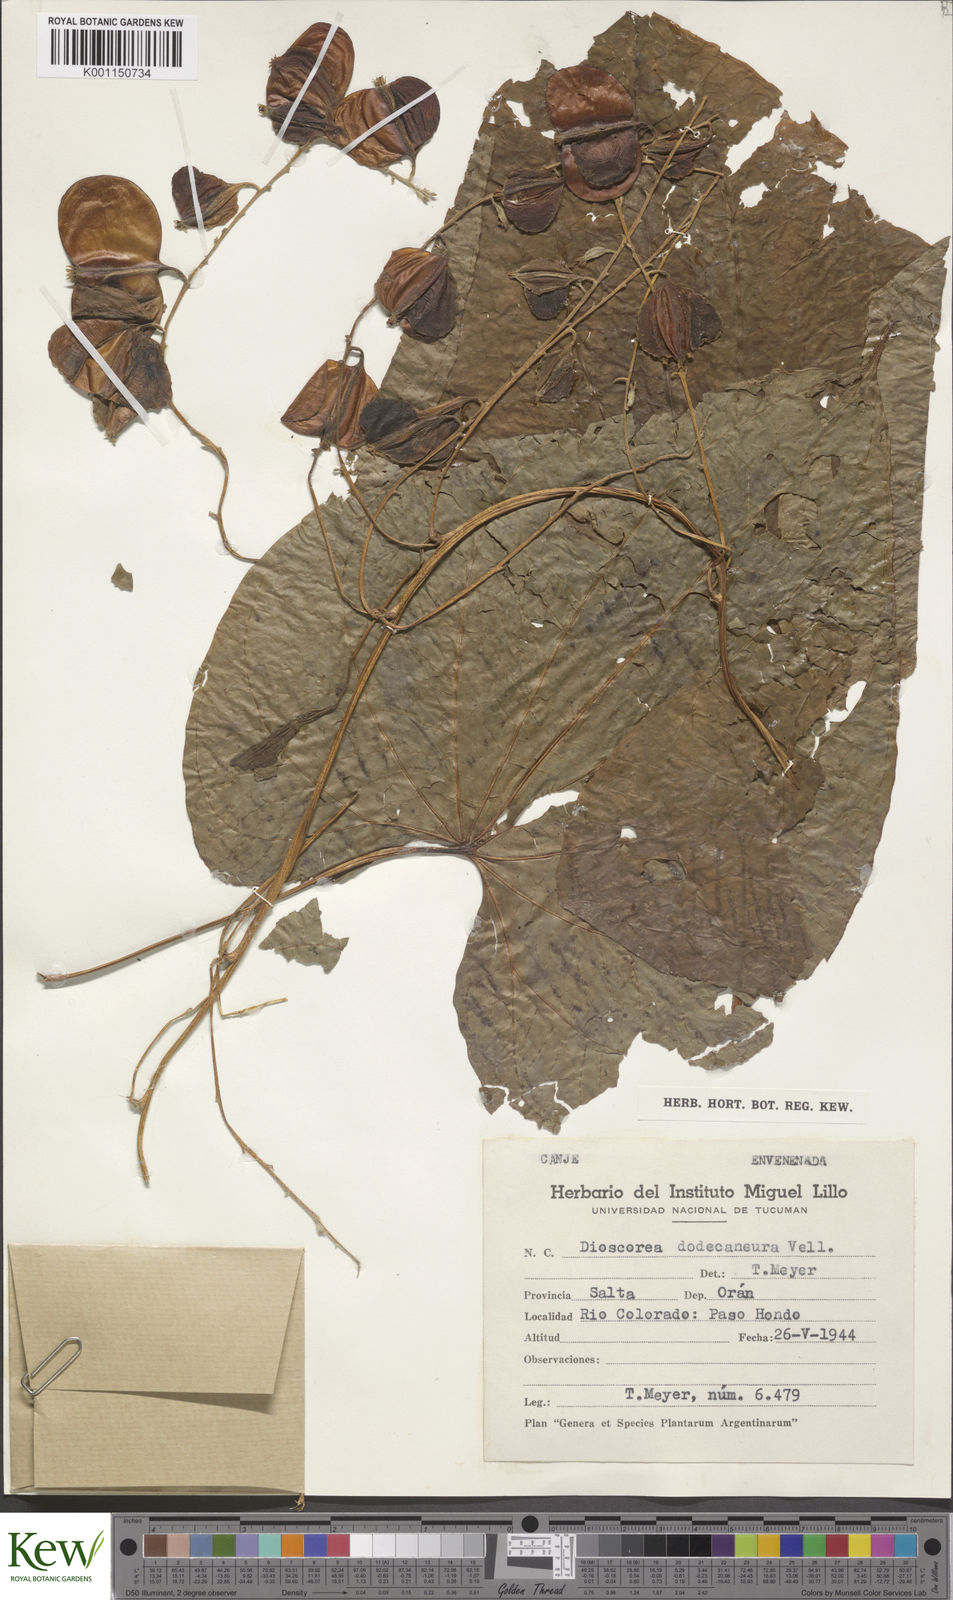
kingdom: Plantae
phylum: Tracheophyta
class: Liliopsida
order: Dioscoreales
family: Dioscoreaceae
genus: Dioscorea
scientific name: Dioscorea dodecaneura
